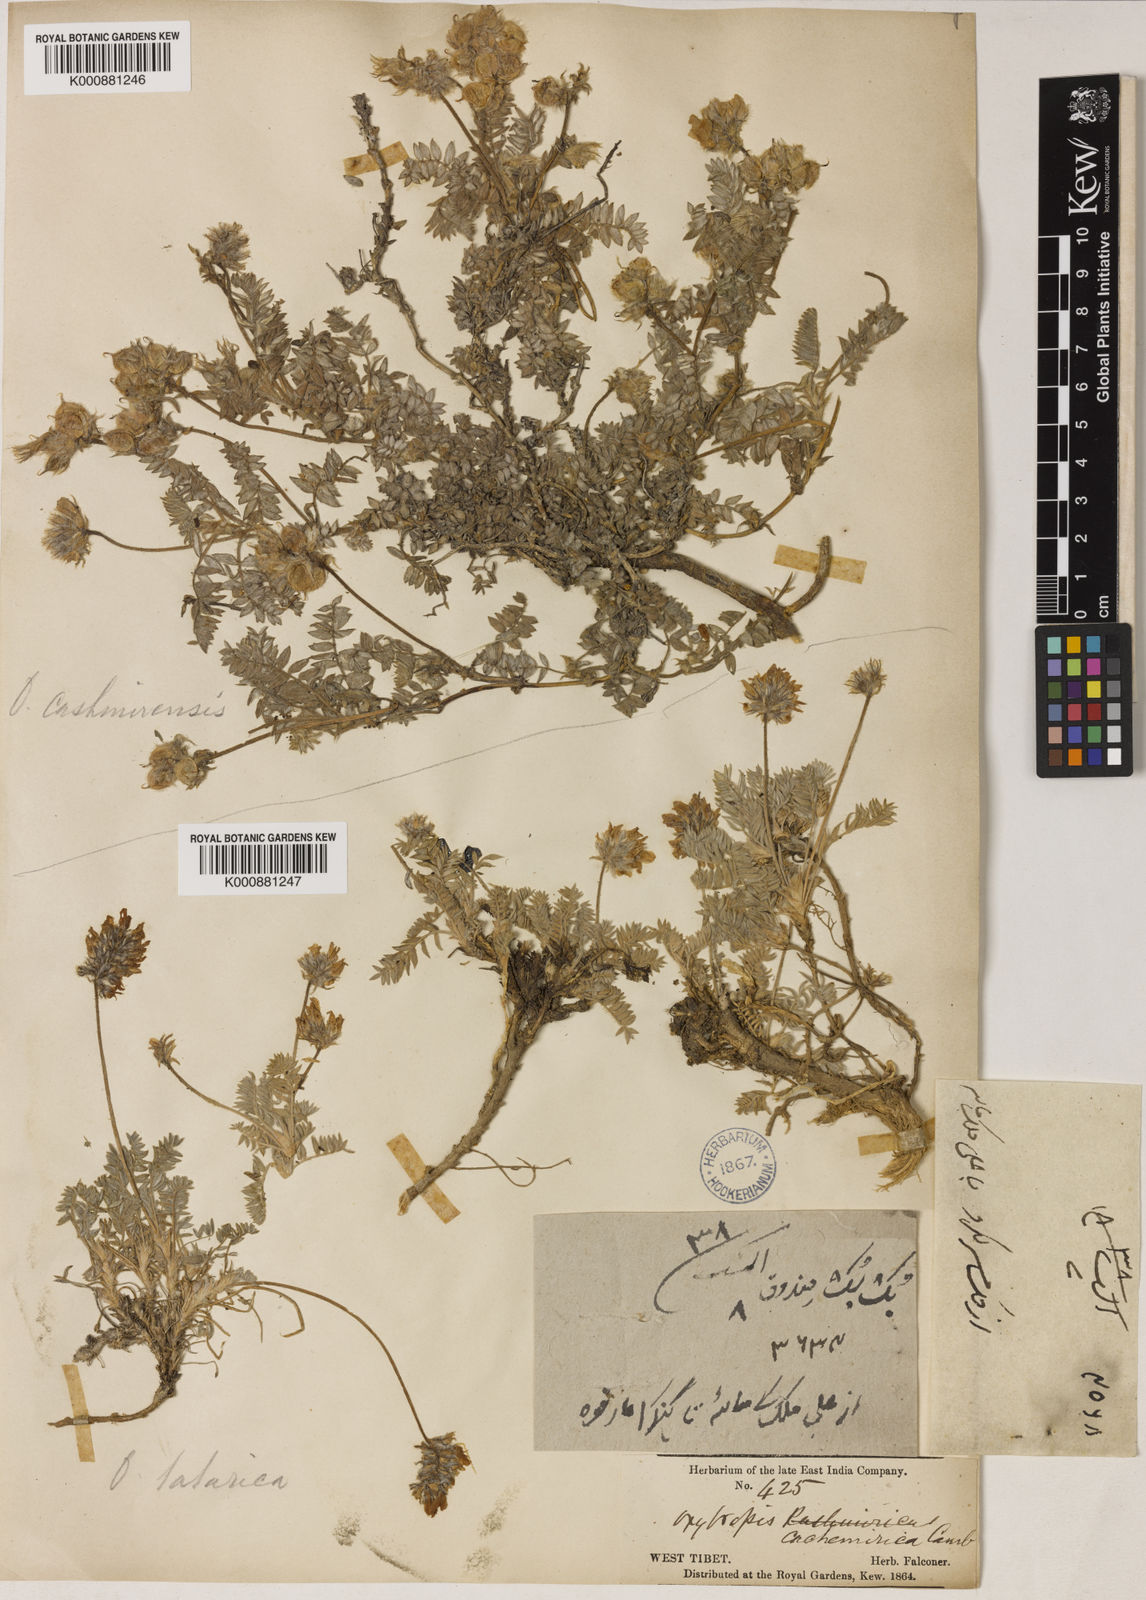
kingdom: Plantae
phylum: Tracheophyta
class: Magnoliopsida
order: Fabales
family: Fabaceae
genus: Oxytropis
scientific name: Oxytropis cachemiriana
